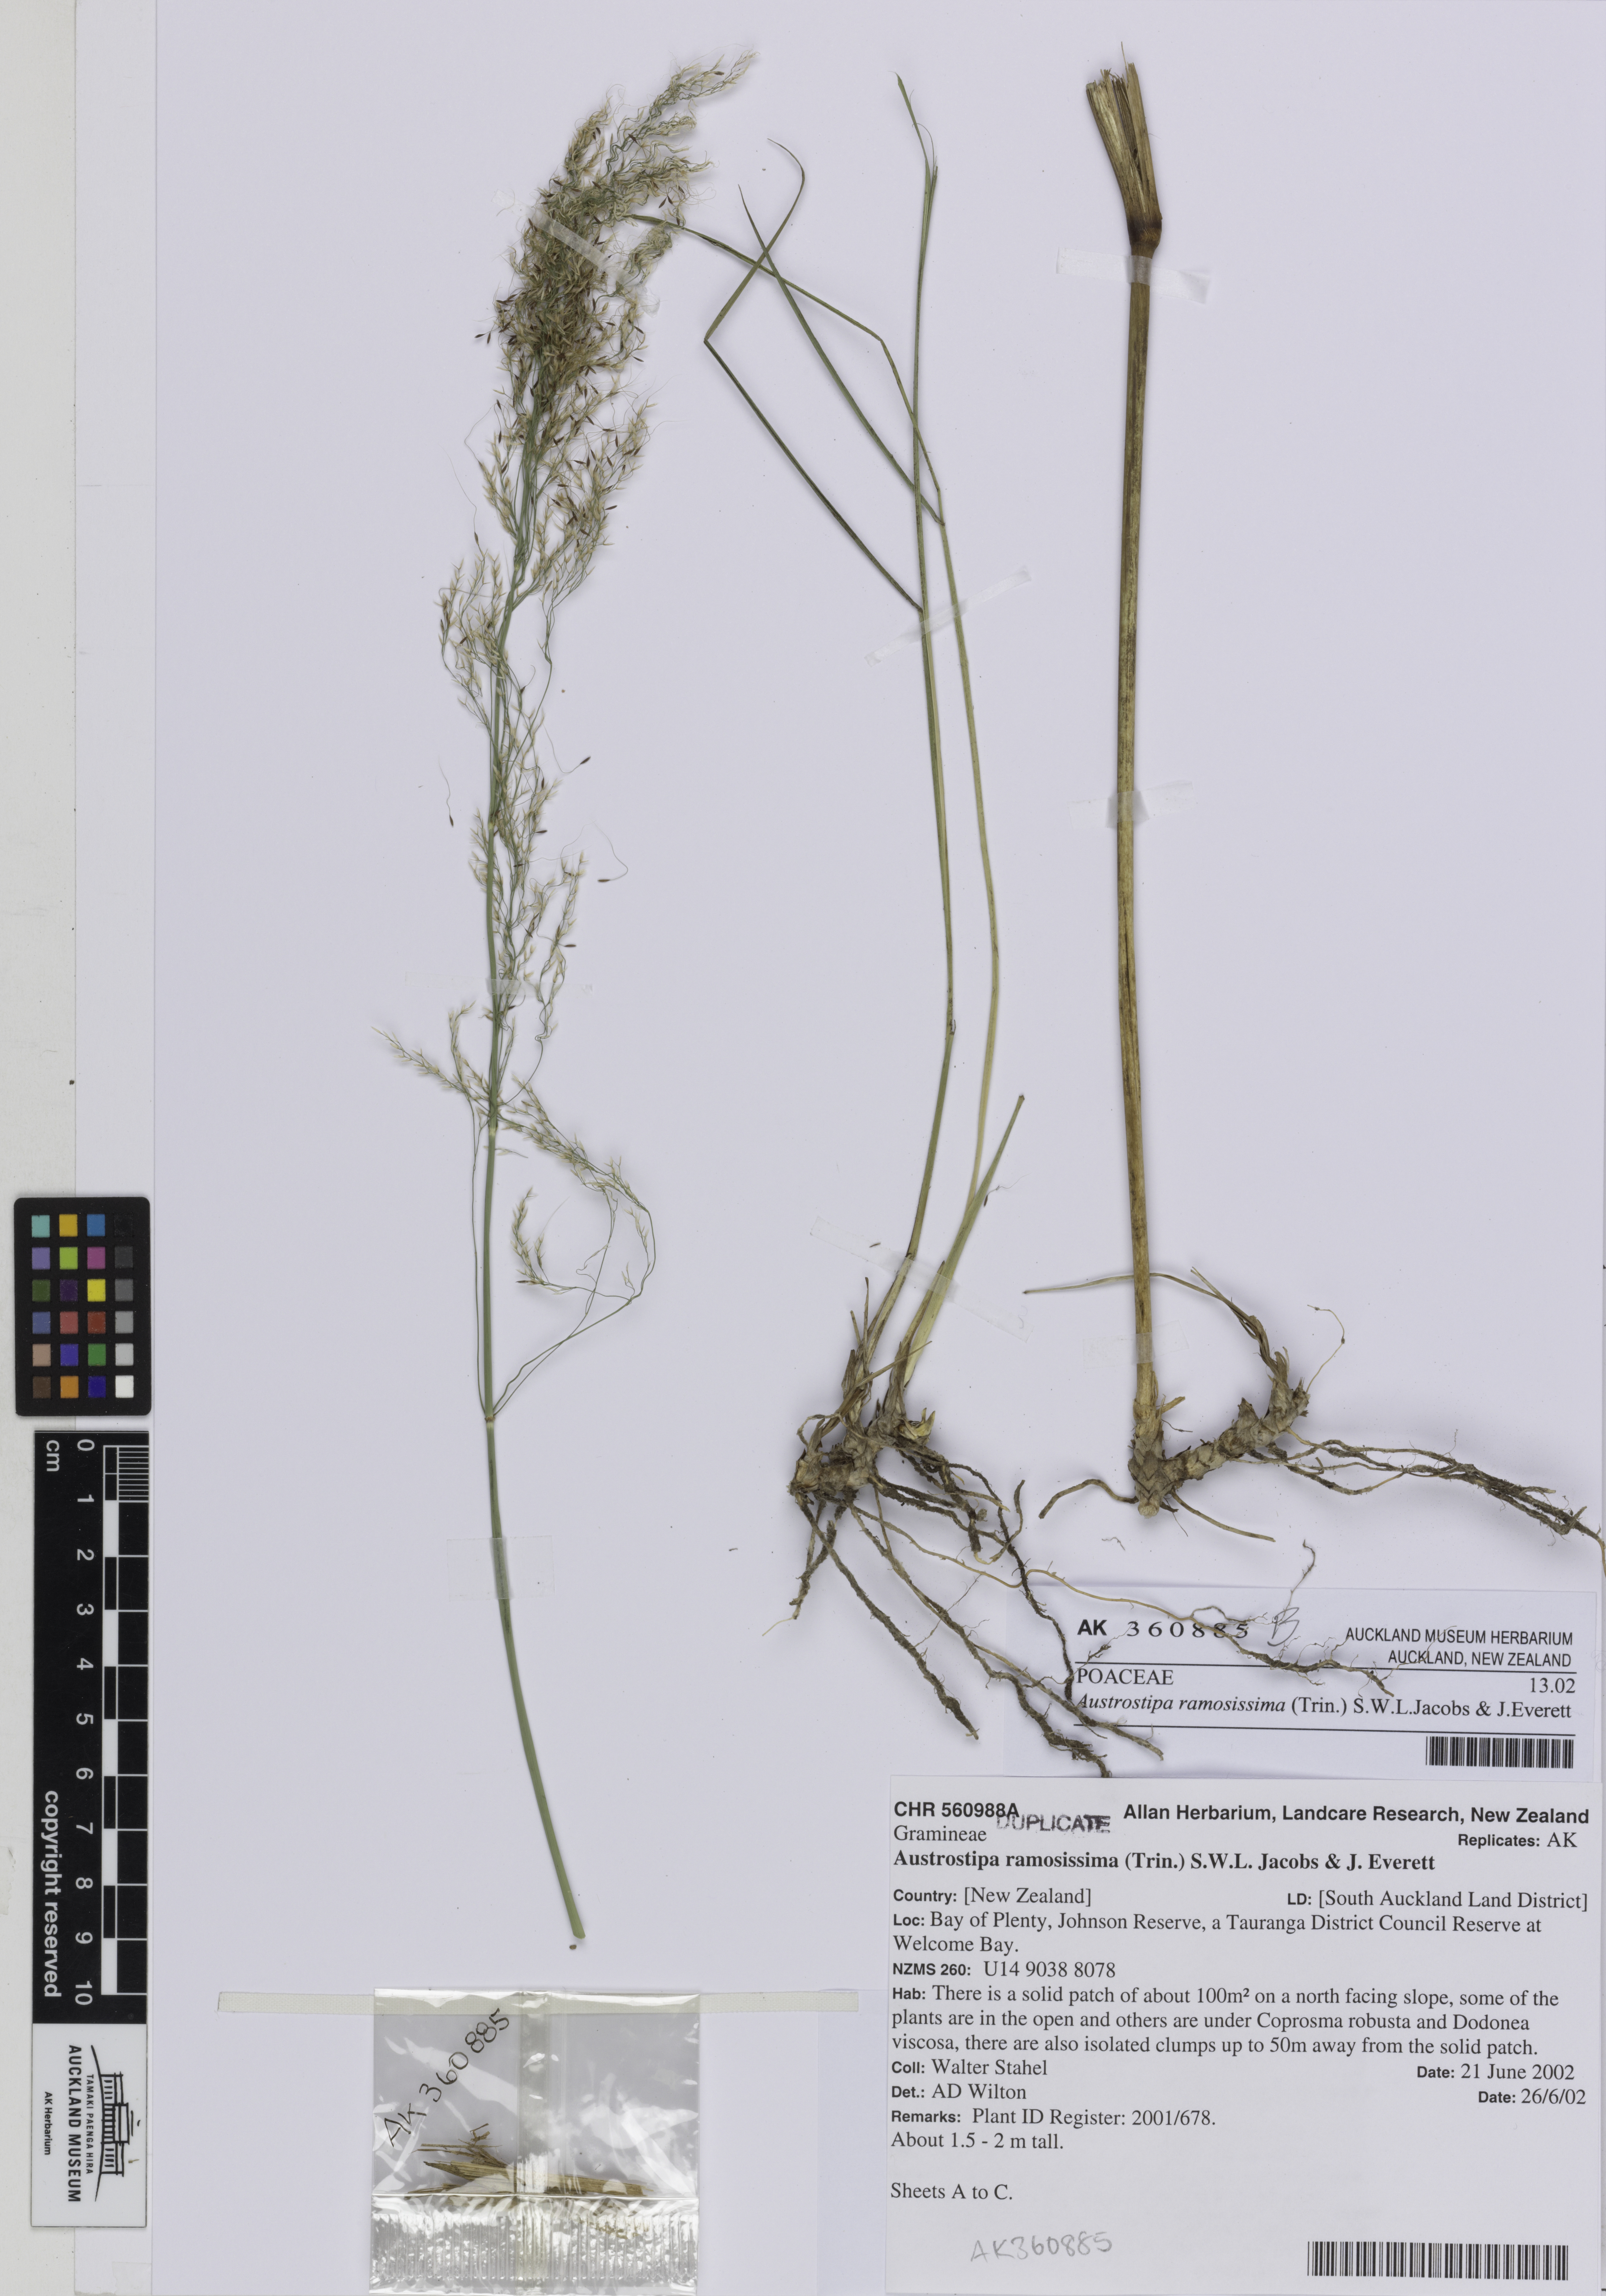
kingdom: Plantae
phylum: Tracheophyta
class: Liliopsida
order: Poales
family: Poaceae
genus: Austrostipa
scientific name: Austrostipa ramosissima
